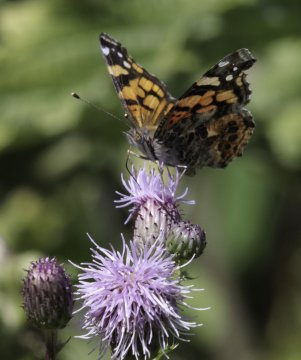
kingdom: Animalia
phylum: Arthropoda
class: Insecta
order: Lepidoptera
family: Nymphalidae
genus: Vanessa
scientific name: Vanessa annabella
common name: West Coast Lady
